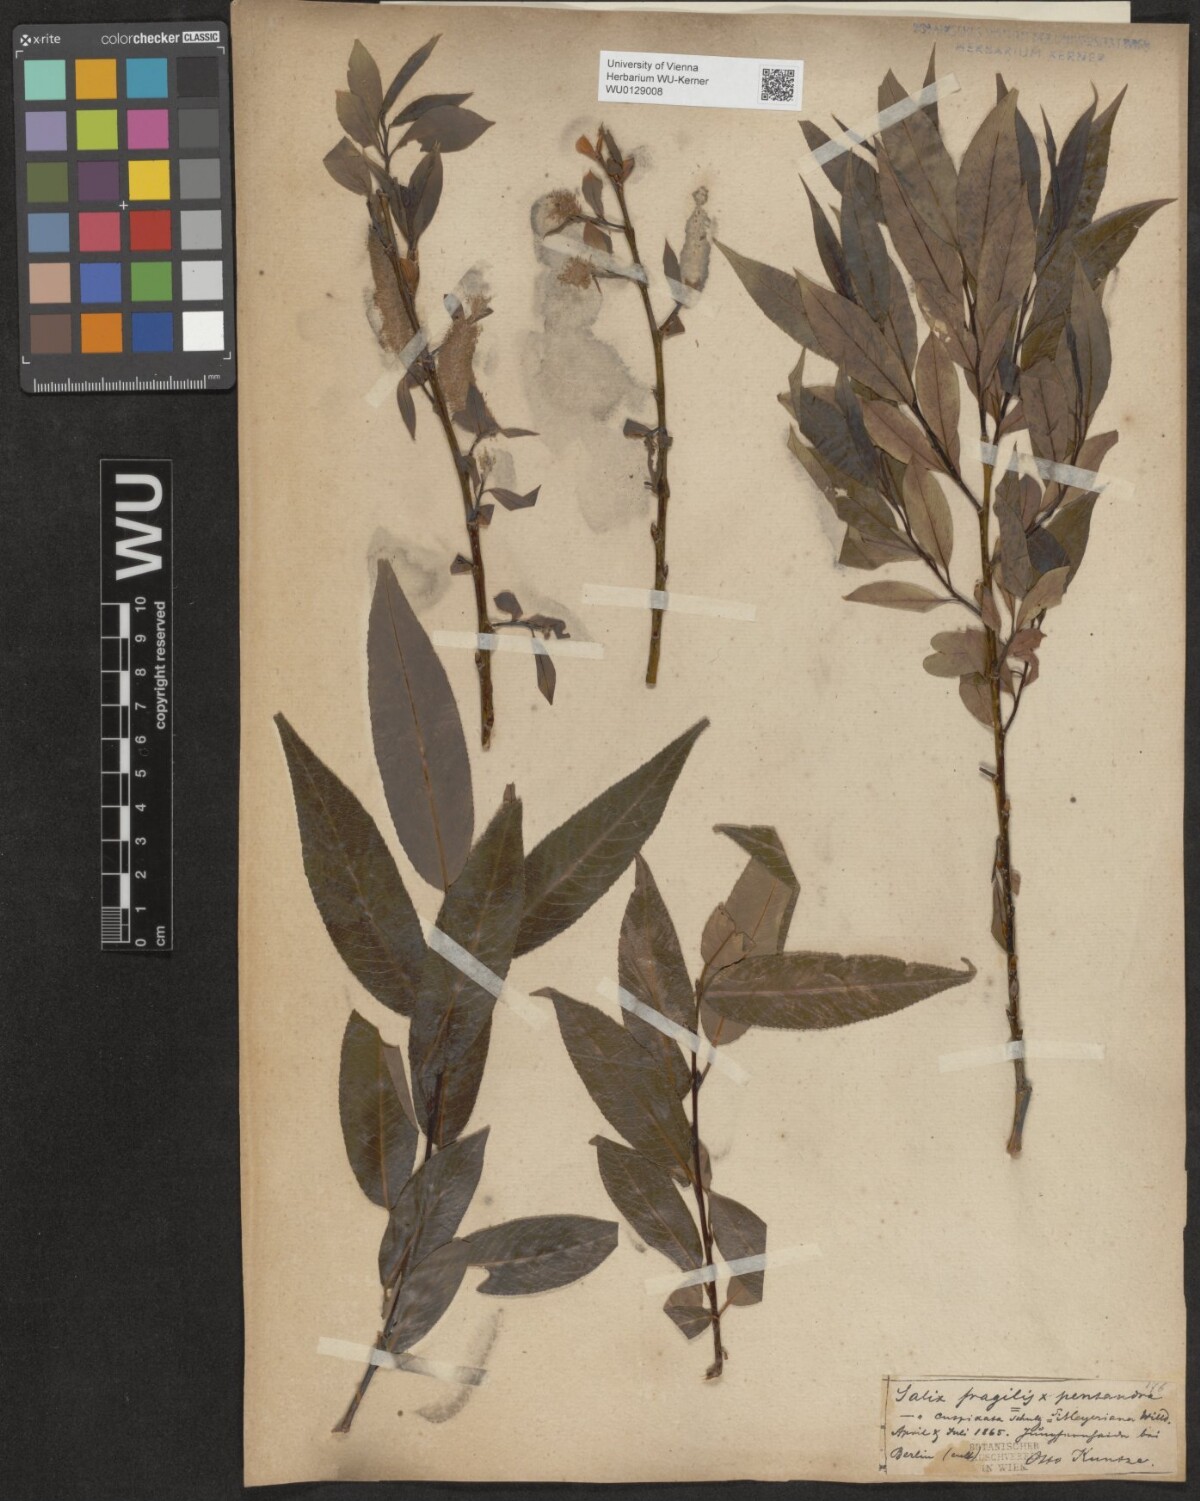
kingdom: Plantae
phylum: Tracheophyta
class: Magnoliopsida
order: Malpighiales
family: Salicaceae
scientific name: Salicaceae
